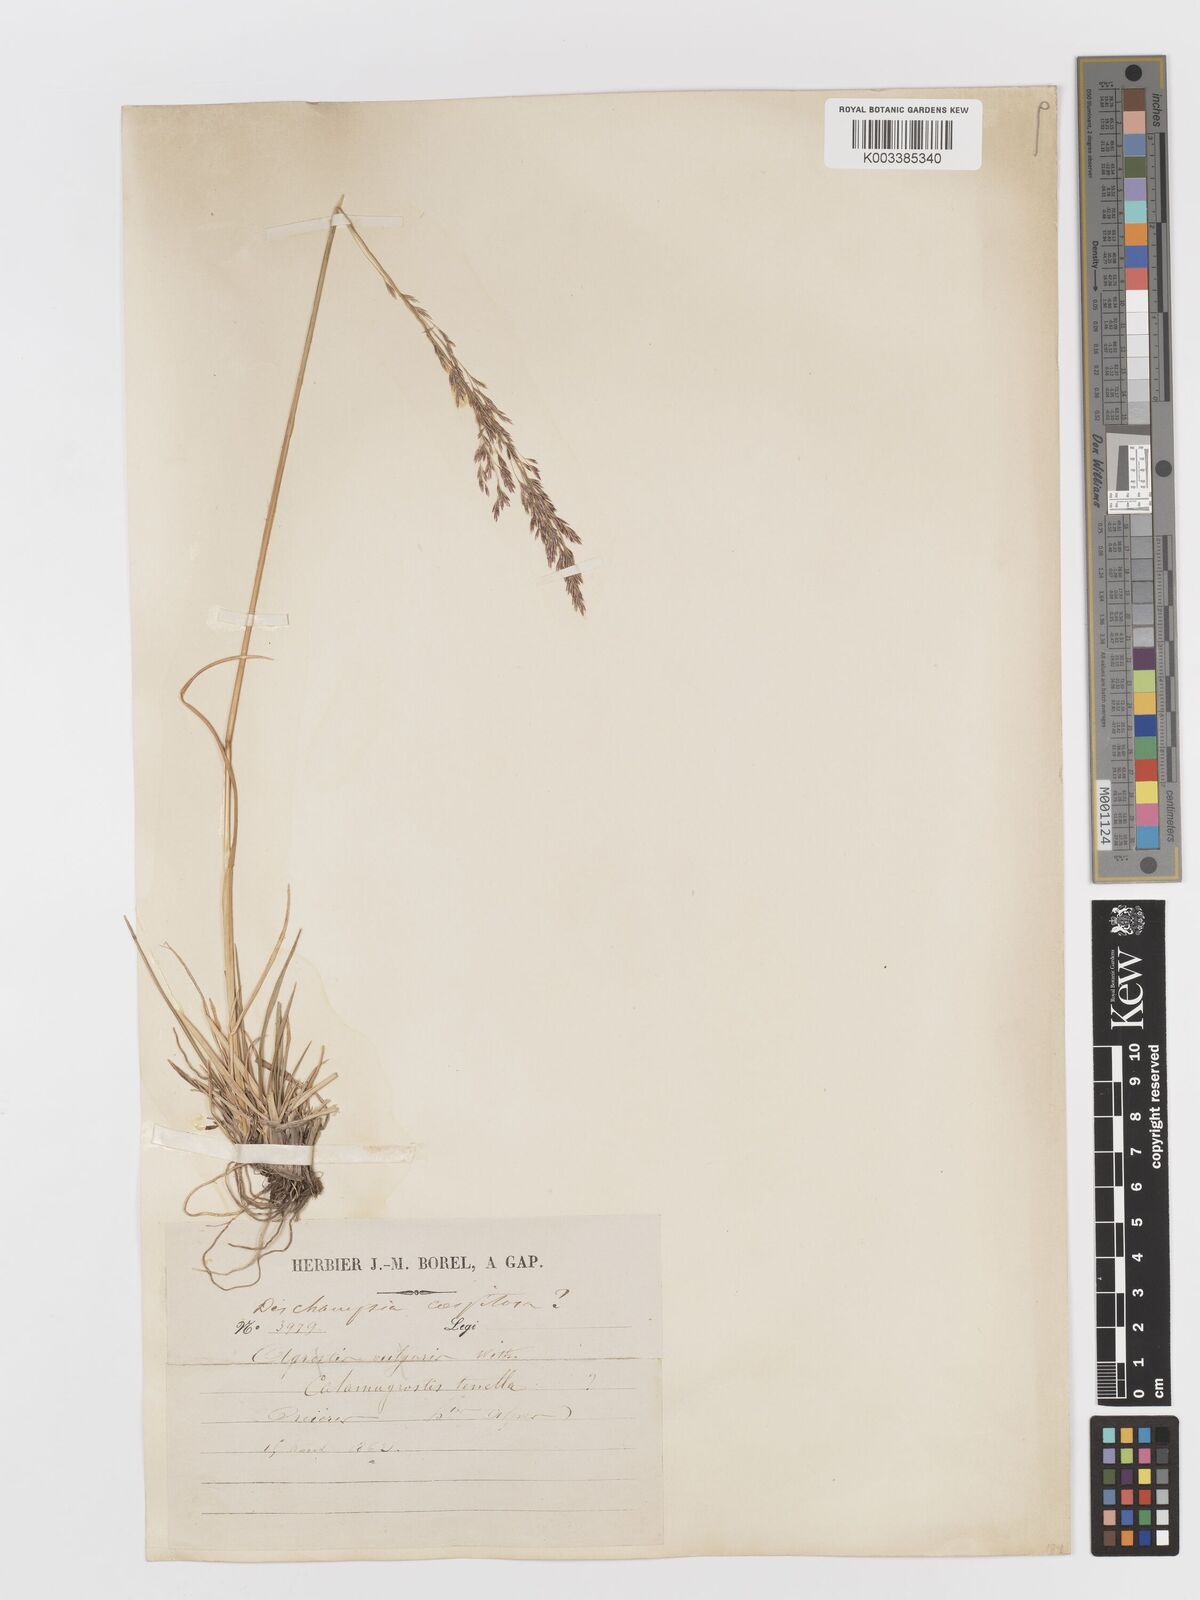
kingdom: Plantae
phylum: Tracheophyta
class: Liliopsida
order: Poales
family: Poaceae
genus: Deschampsia
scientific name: Deschampsia cespitosa
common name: Tufted hair-grass
